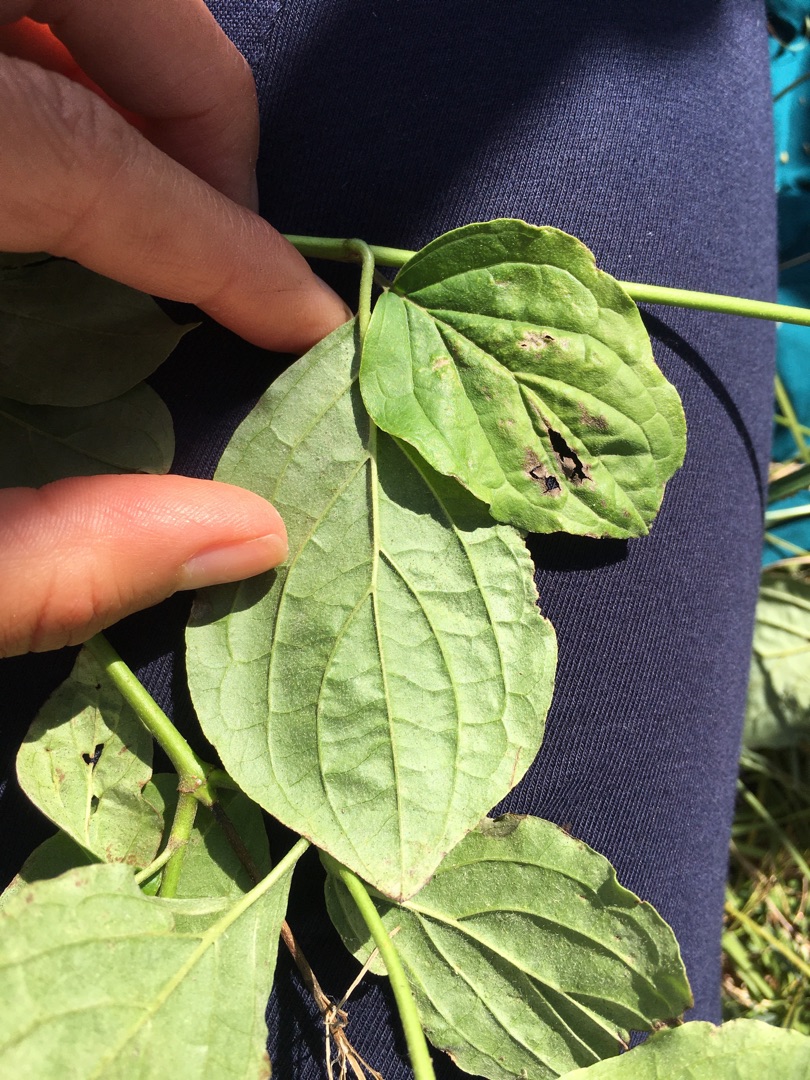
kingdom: Plantae
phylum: Tracheophyta
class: Magnoliopsida
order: Cornales
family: Cornaceae
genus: Cornus
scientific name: Cornus sanguinea
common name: Rød kornel
